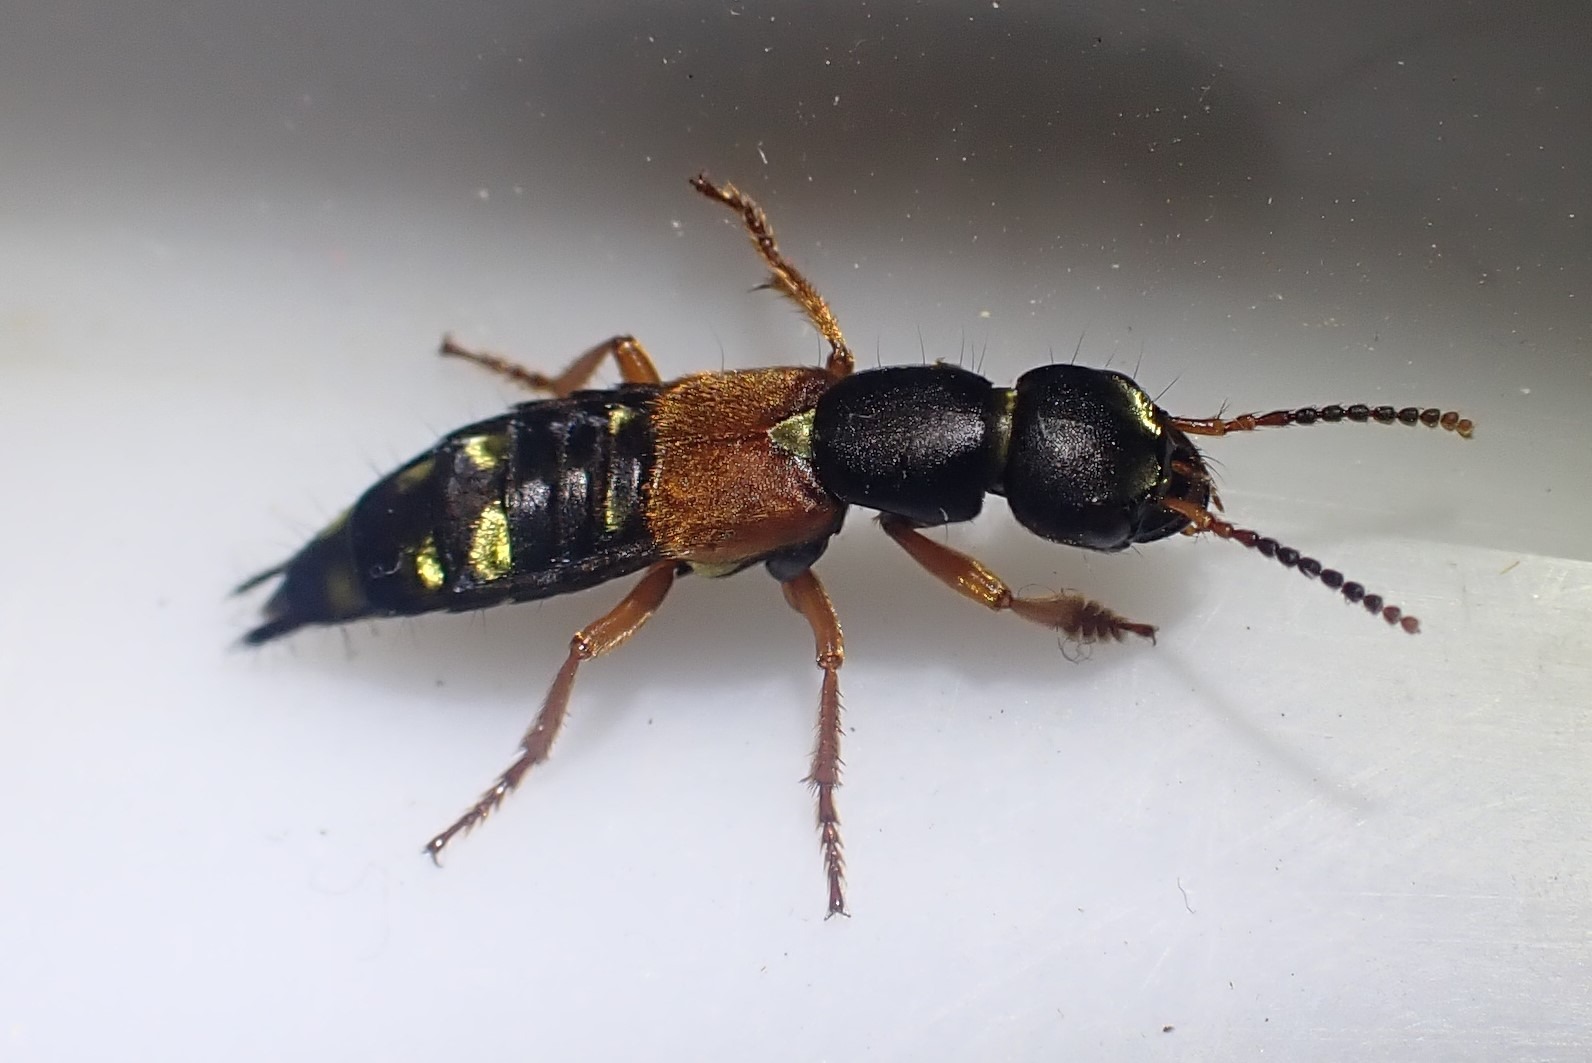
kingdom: Animalia
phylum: Arthropoda
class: Insecta
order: Coleoptera
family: Staphylinidae
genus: Staphylinus
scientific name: Staphylinus erythropterus
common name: Rødvinget rovbille
